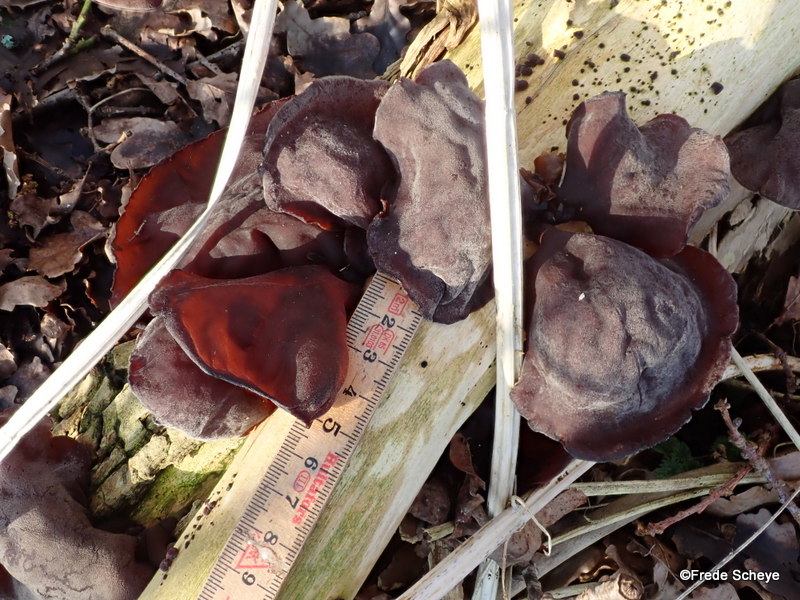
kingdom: Fungi
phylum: Basidiomycota
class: Agaricomycetes
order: Auriculariales
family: Auriculariaceae
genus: Auricularia
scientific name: Auricularia auricula-judae
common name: almindelig judasøre
